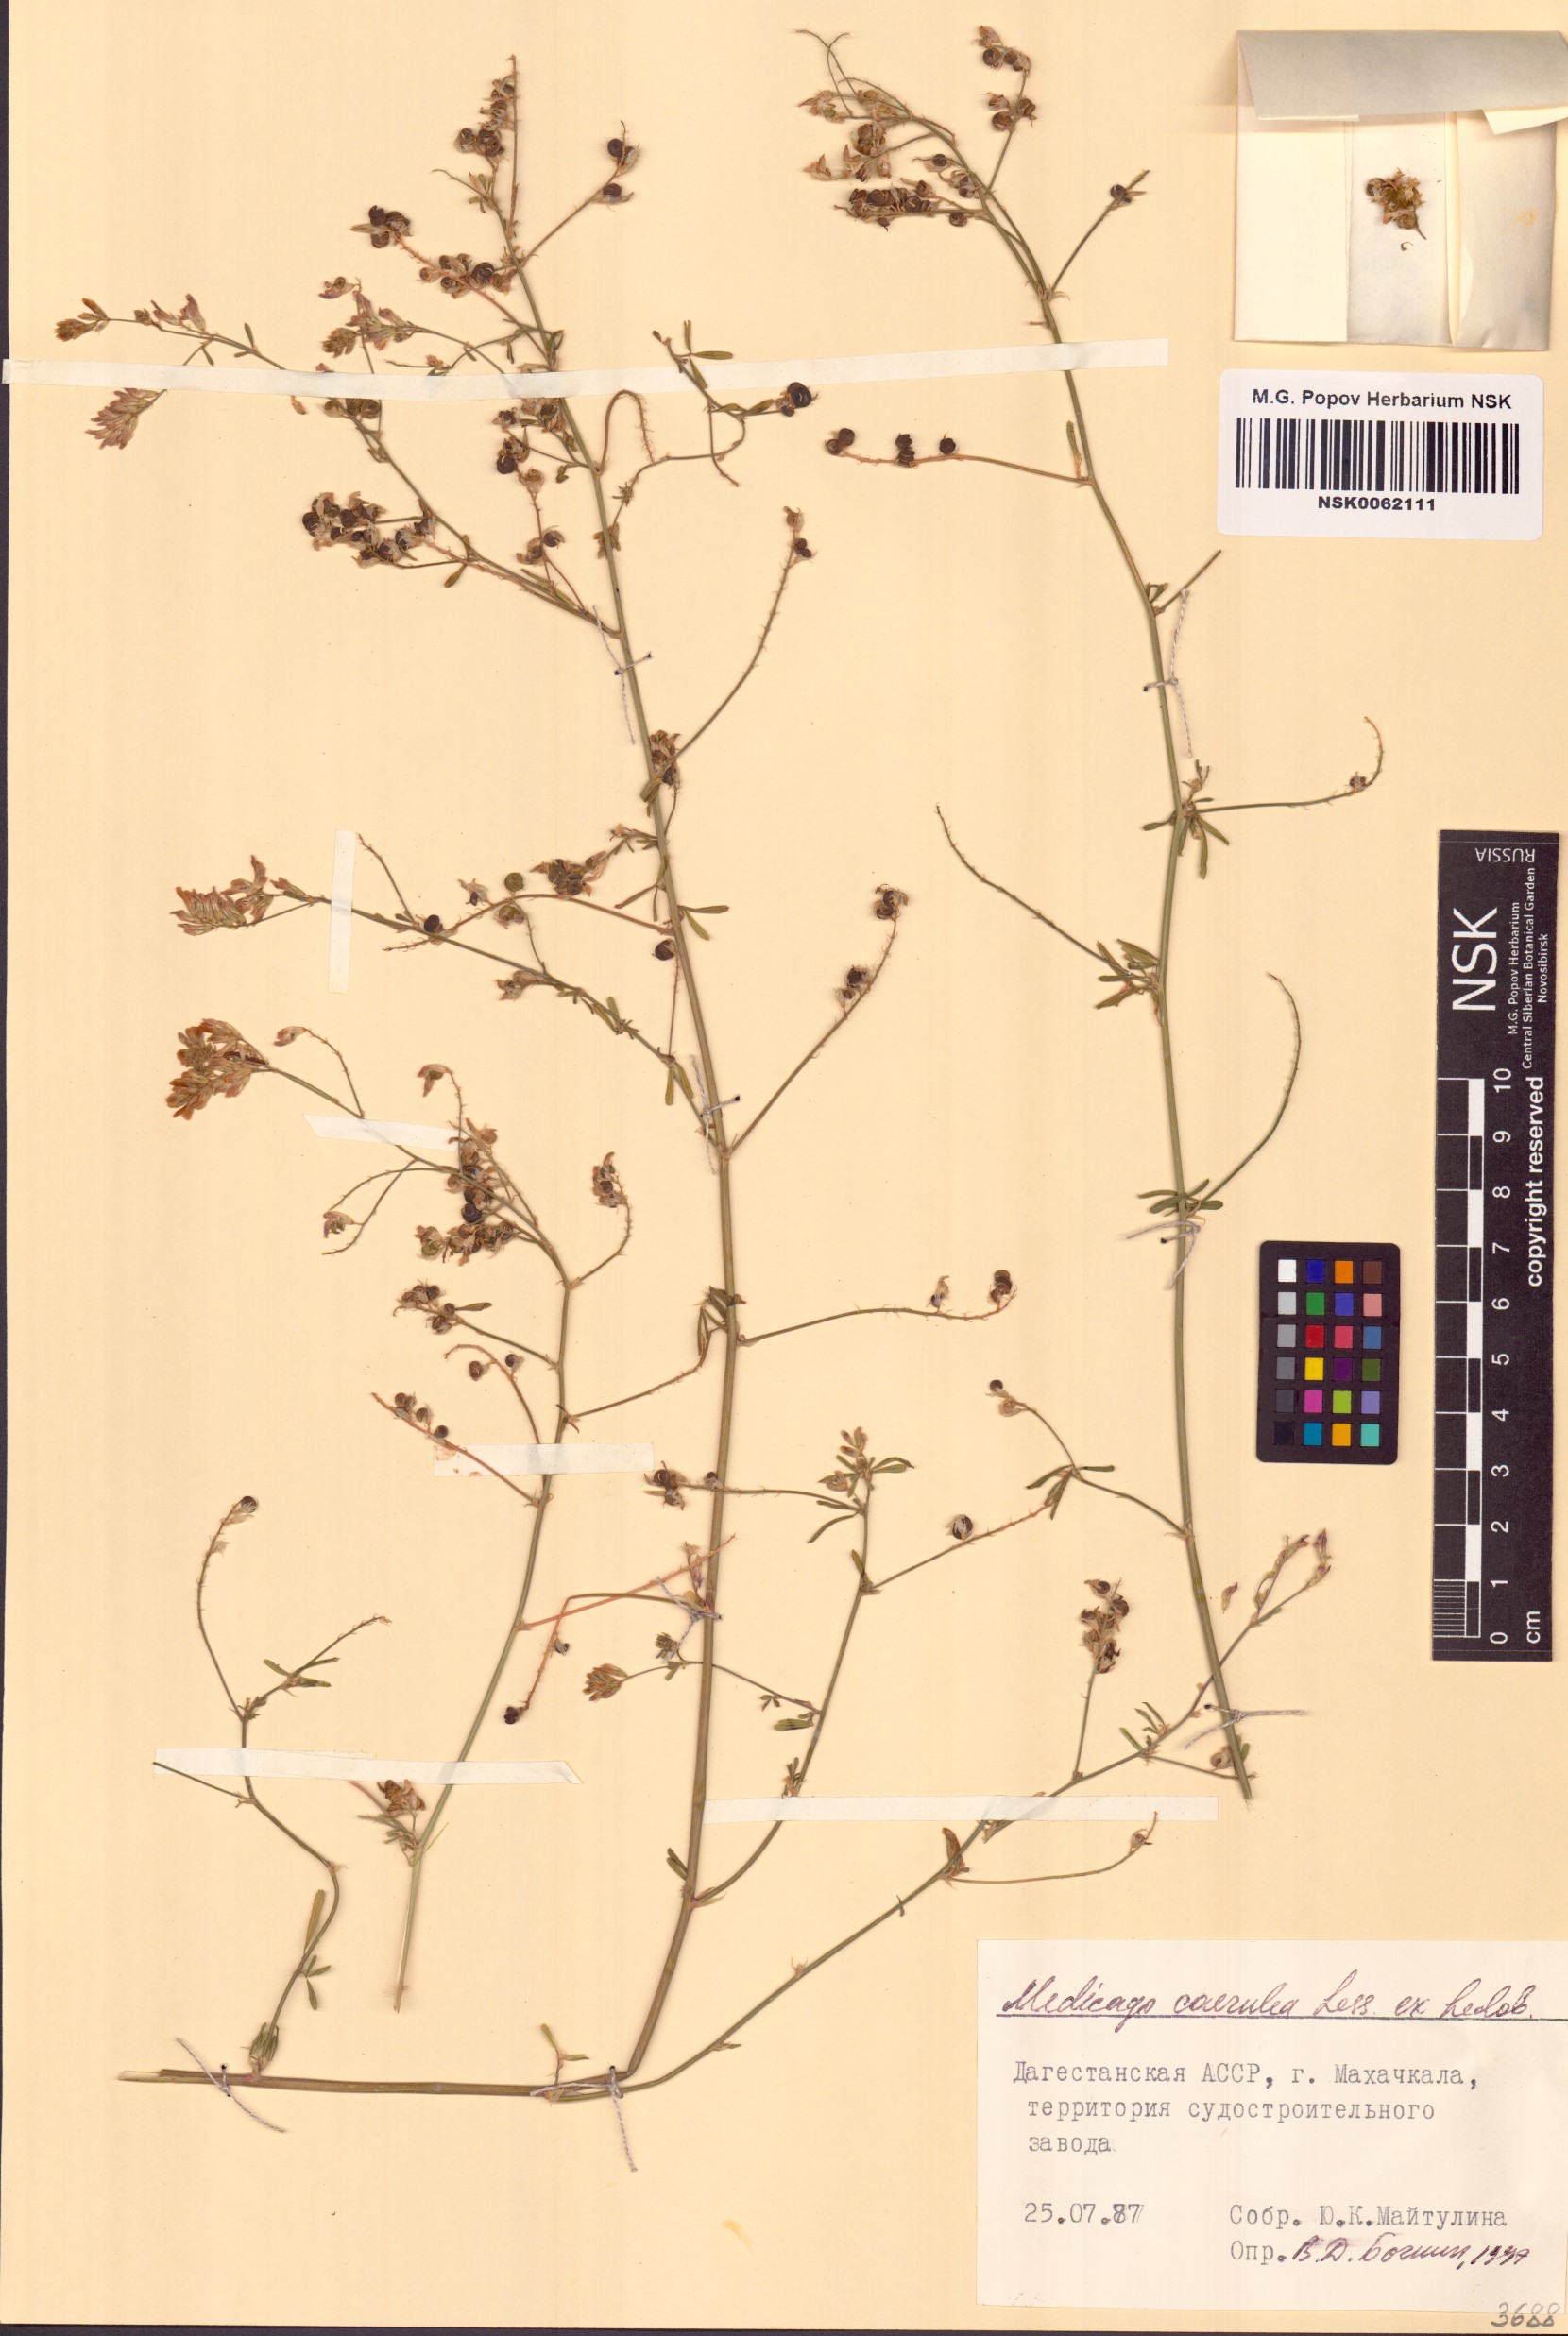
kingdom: Plantae
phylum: Tracheophyta
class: Magnoliopsida
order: Fabales
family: Fabaceae
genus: Medicago
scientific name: Medicago sativa
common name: Alfalfa
